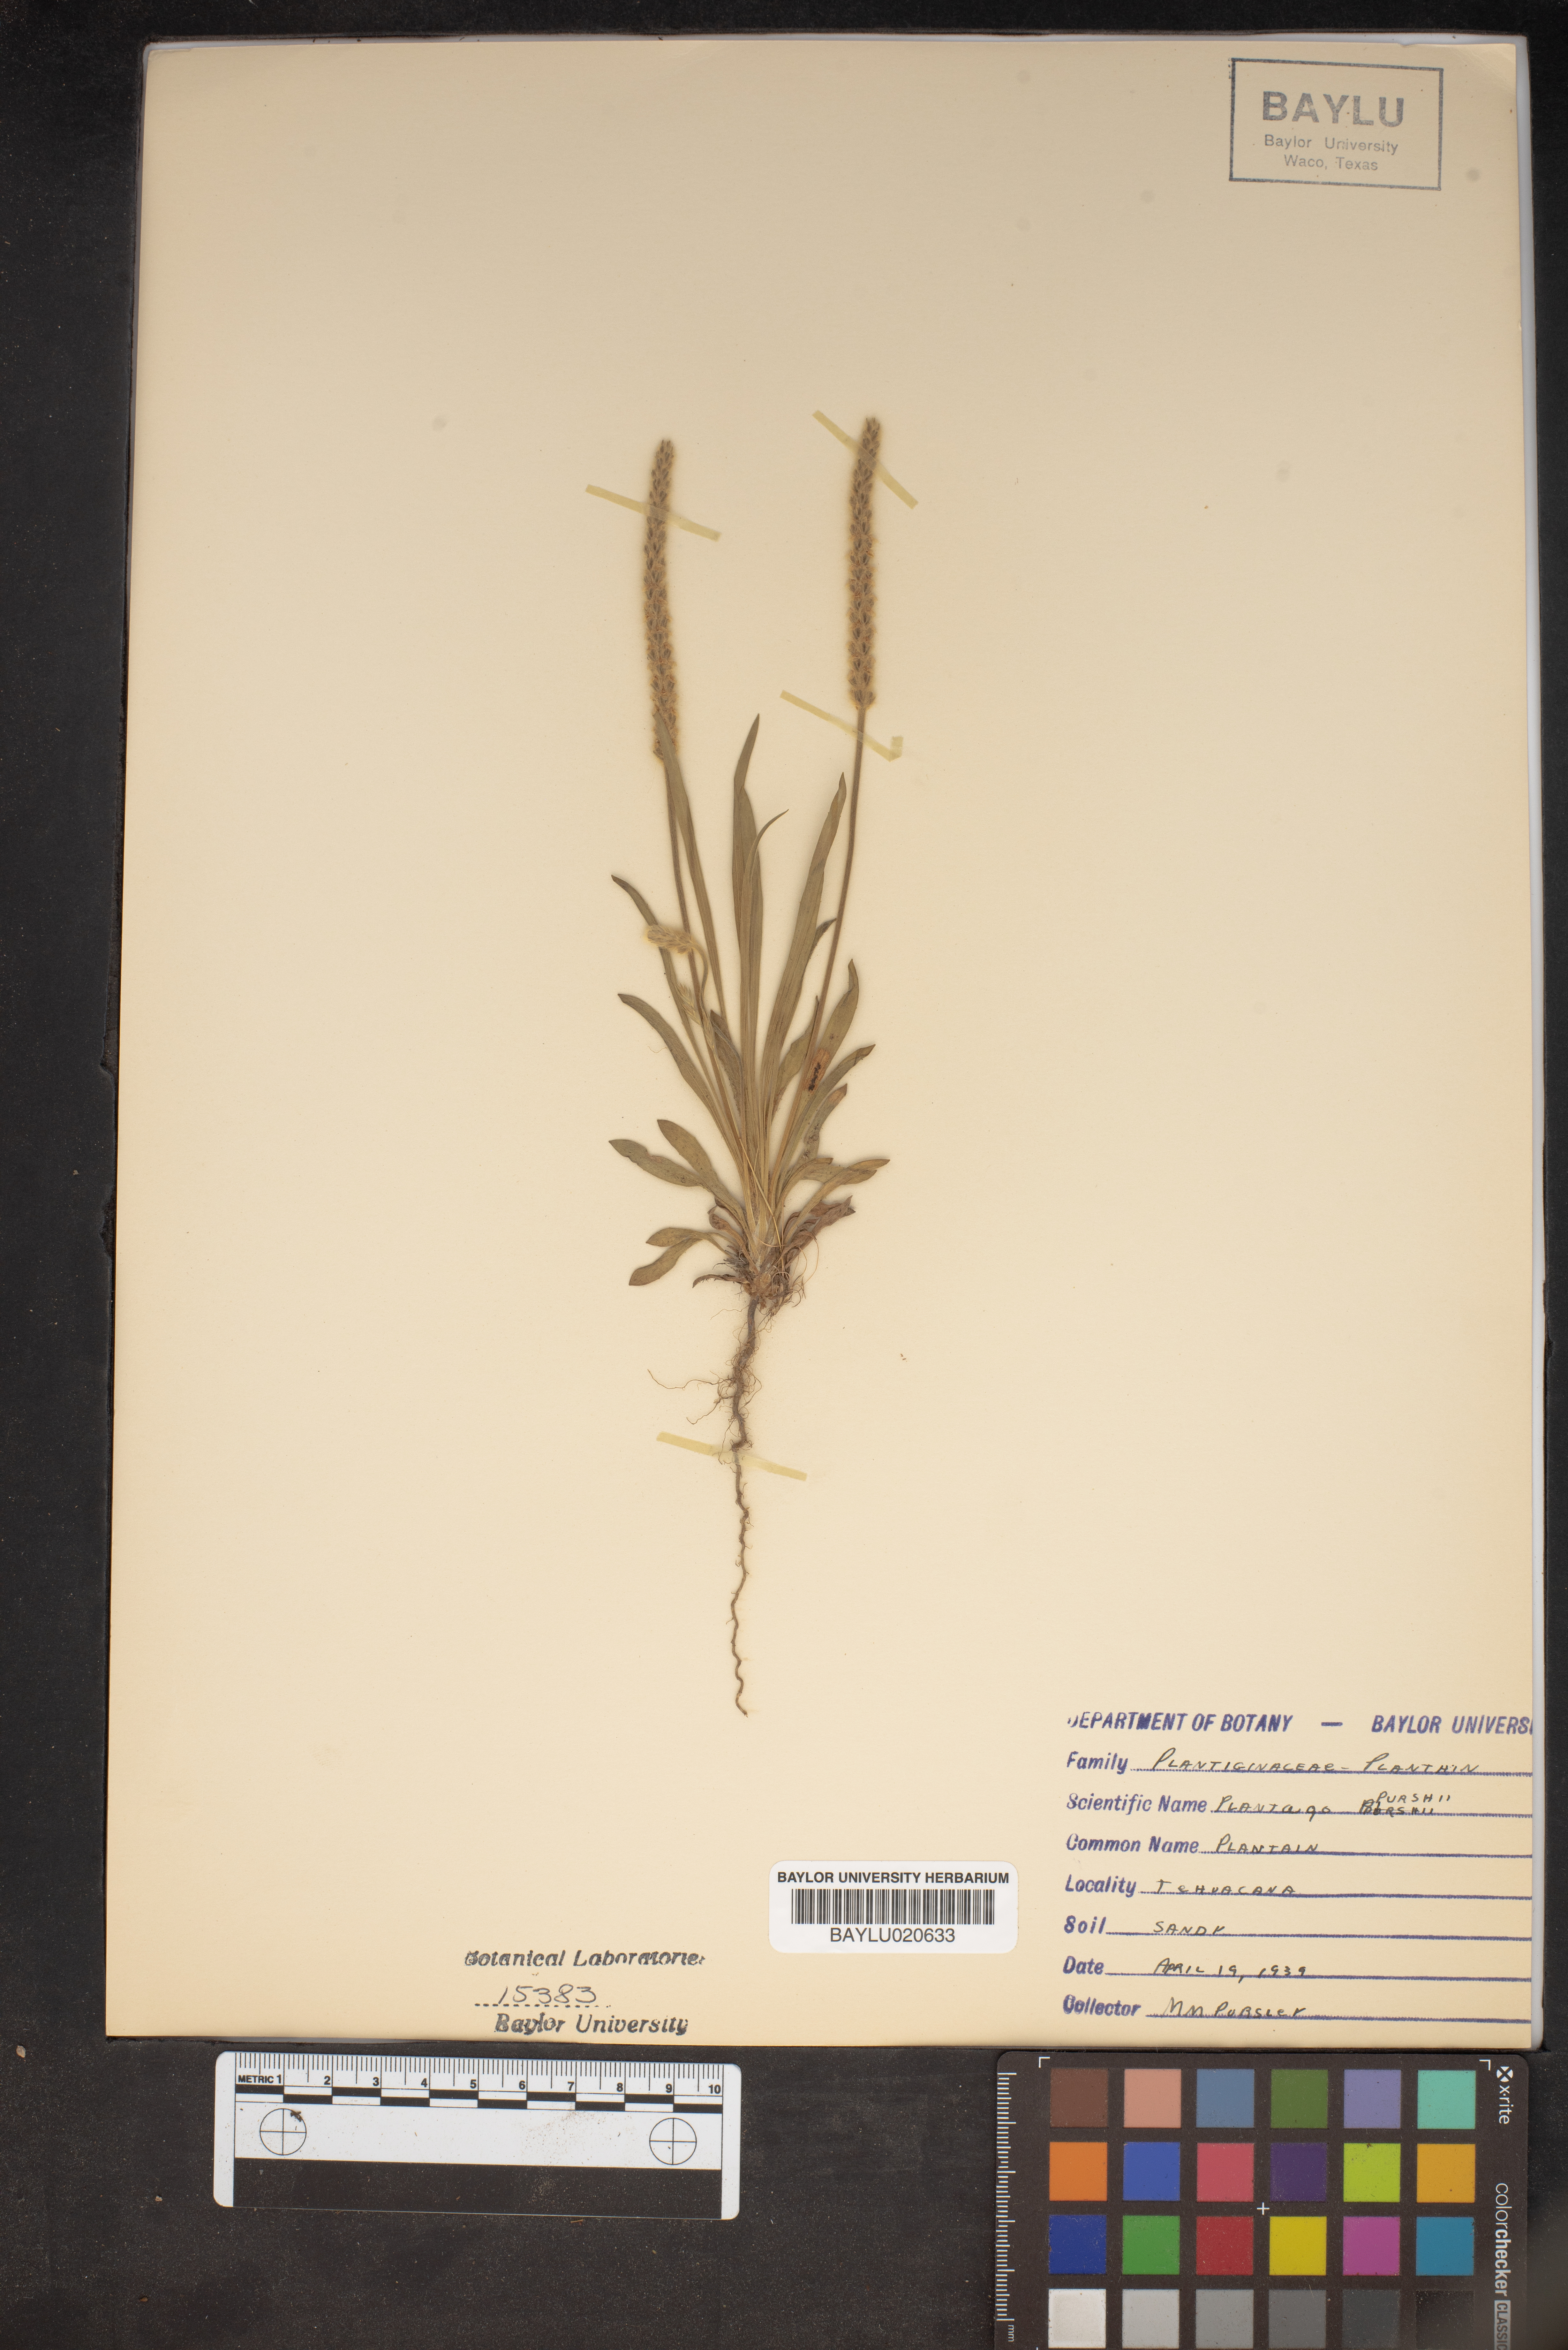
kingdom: Plantae
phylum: Tracheophyta
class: Magnoliopsida
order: Lamiales
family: Plantaginaceae
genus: Plantago
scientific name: Plantago patagonica
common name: Patagonia indian-wheat
